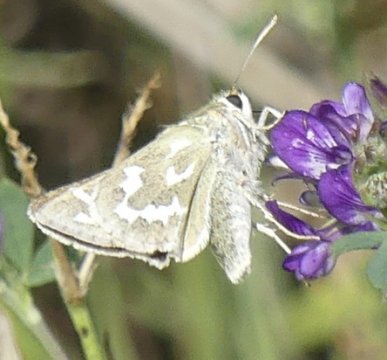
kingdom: Animalia
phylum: Arthropoda
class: Insecta
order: Lepidoptera
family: Hesperiidae
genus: Hesperia
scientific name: Hesperia comma
